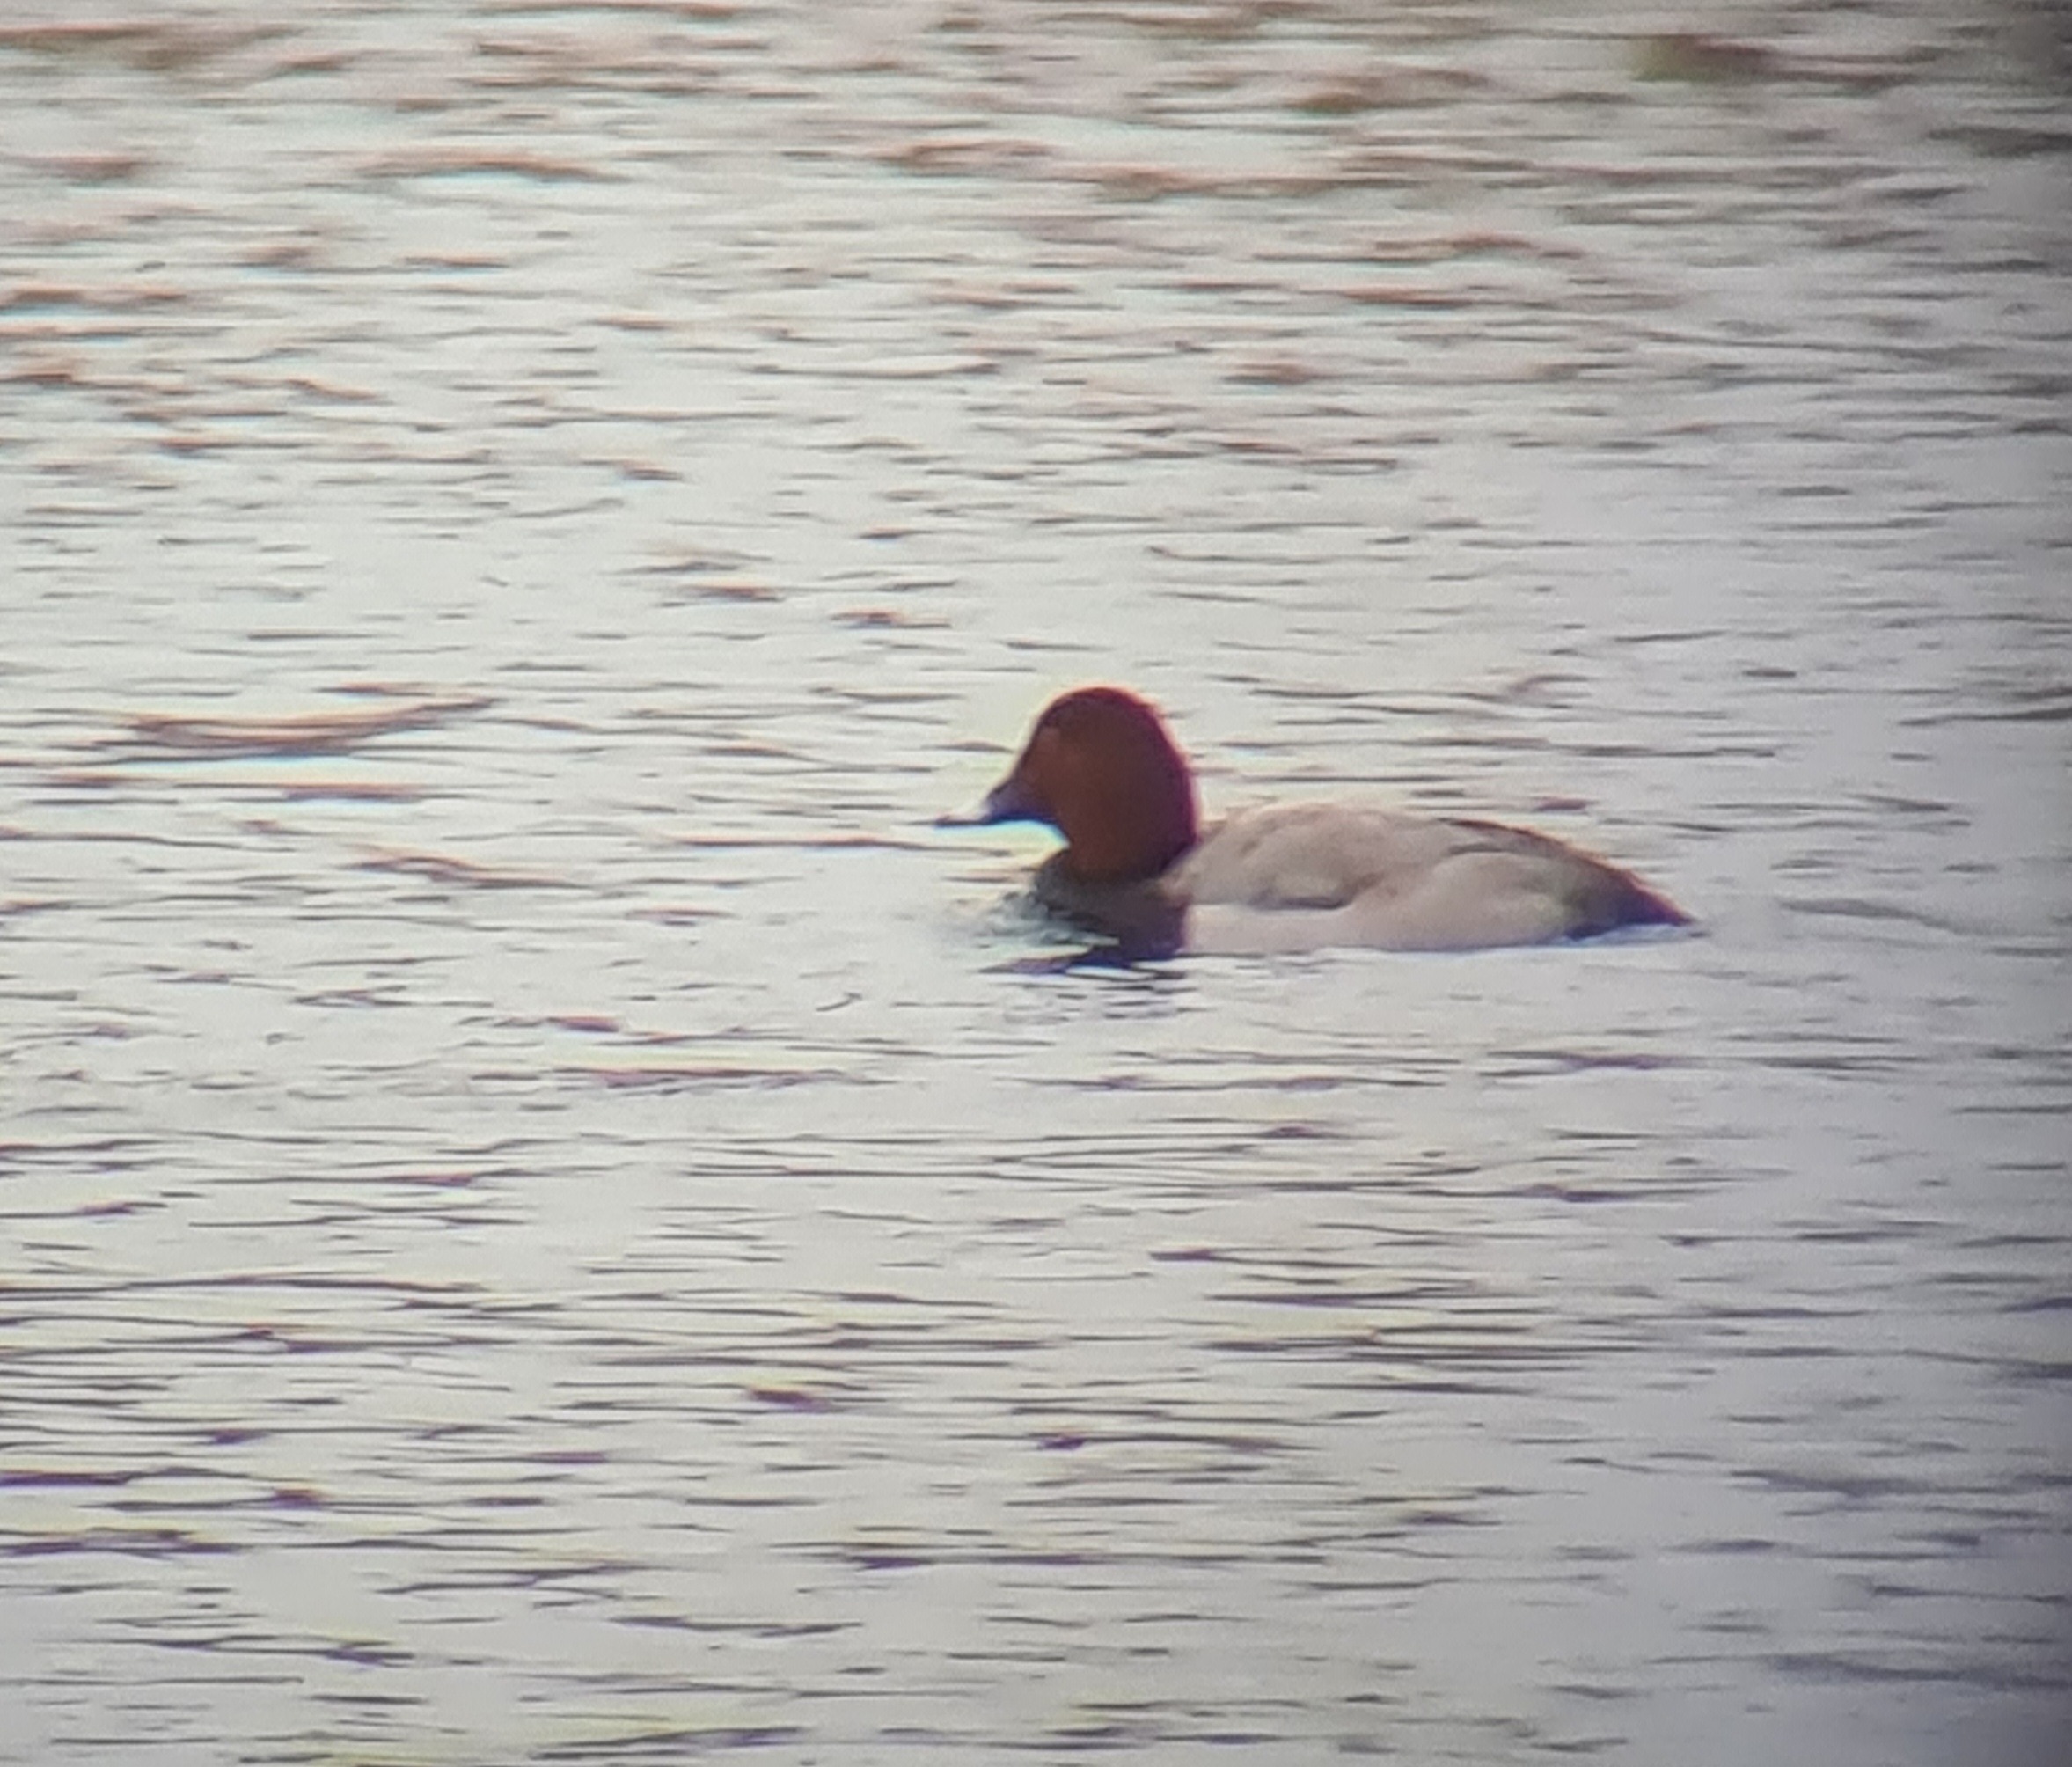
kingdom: Animalia
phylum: Chordata
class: Aves
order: Anseriformes
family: Anatidae
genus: Aythya
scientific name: Aythya ferina
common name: Taffeland
